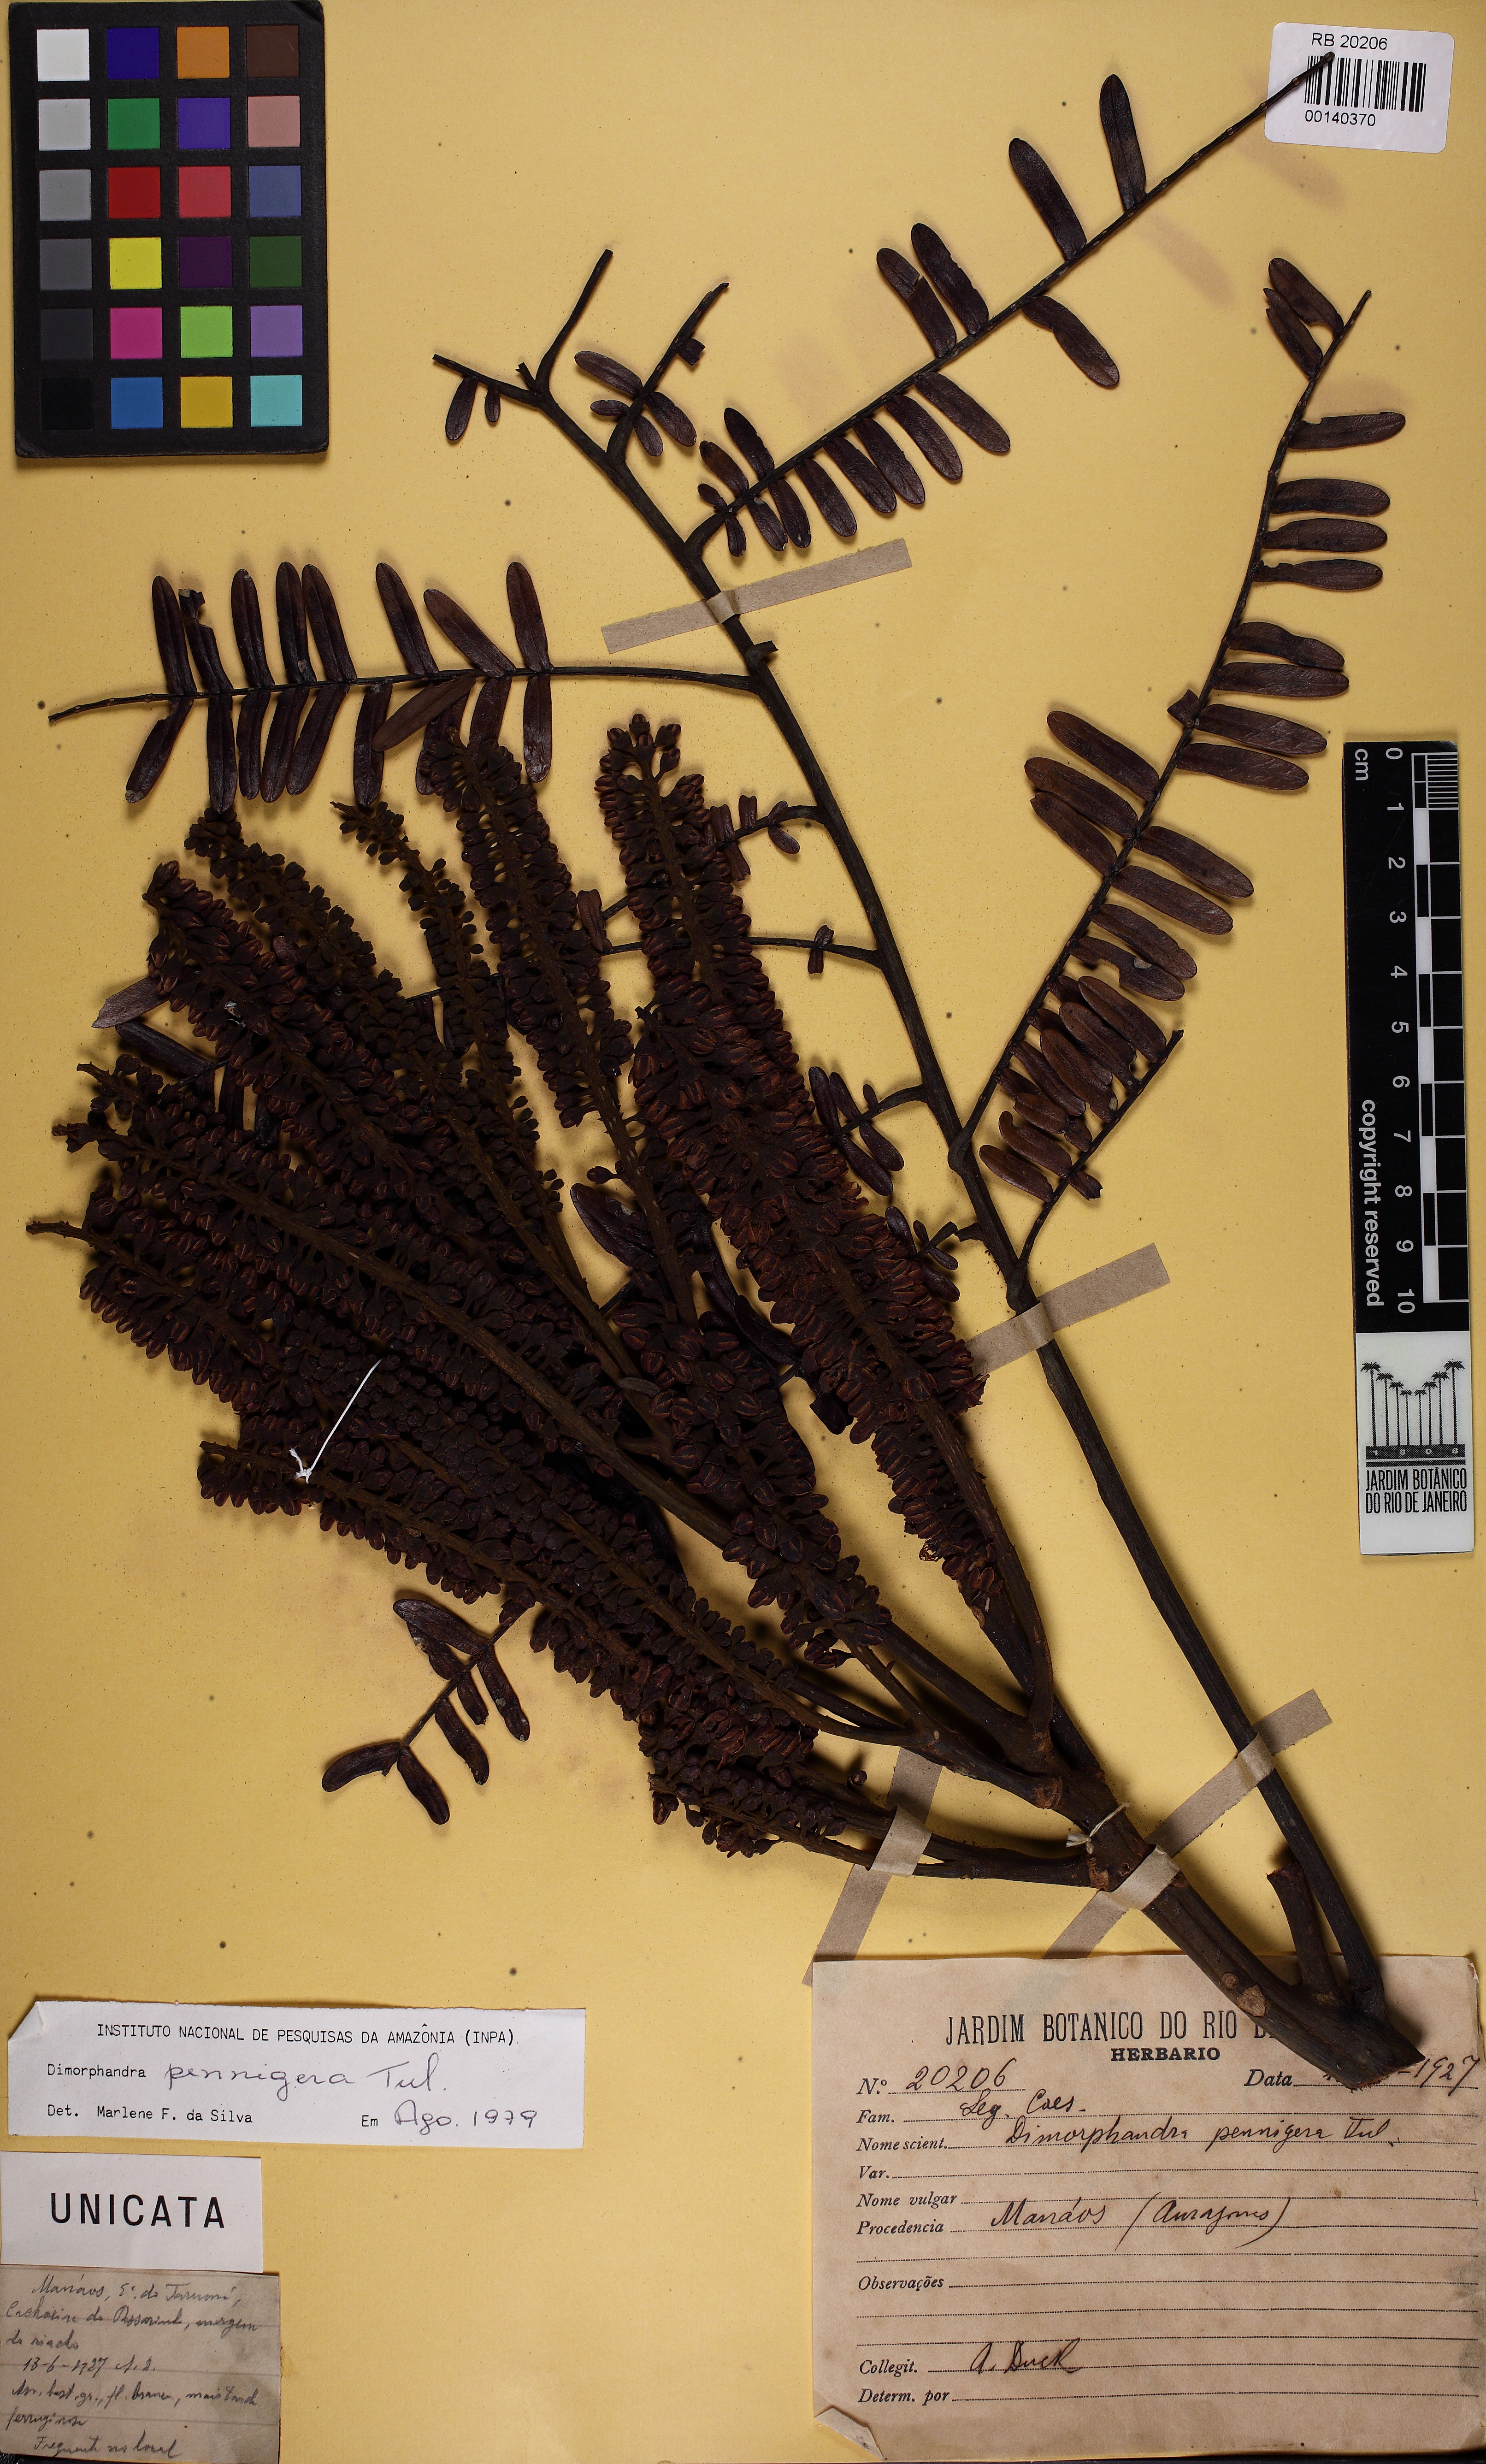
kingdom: Plantae
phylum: Tracheophyta
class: Magnoliopsida
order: Fabales
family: Fabaceae
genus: Dimorphandra
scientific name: Dimorphandra pennigera
